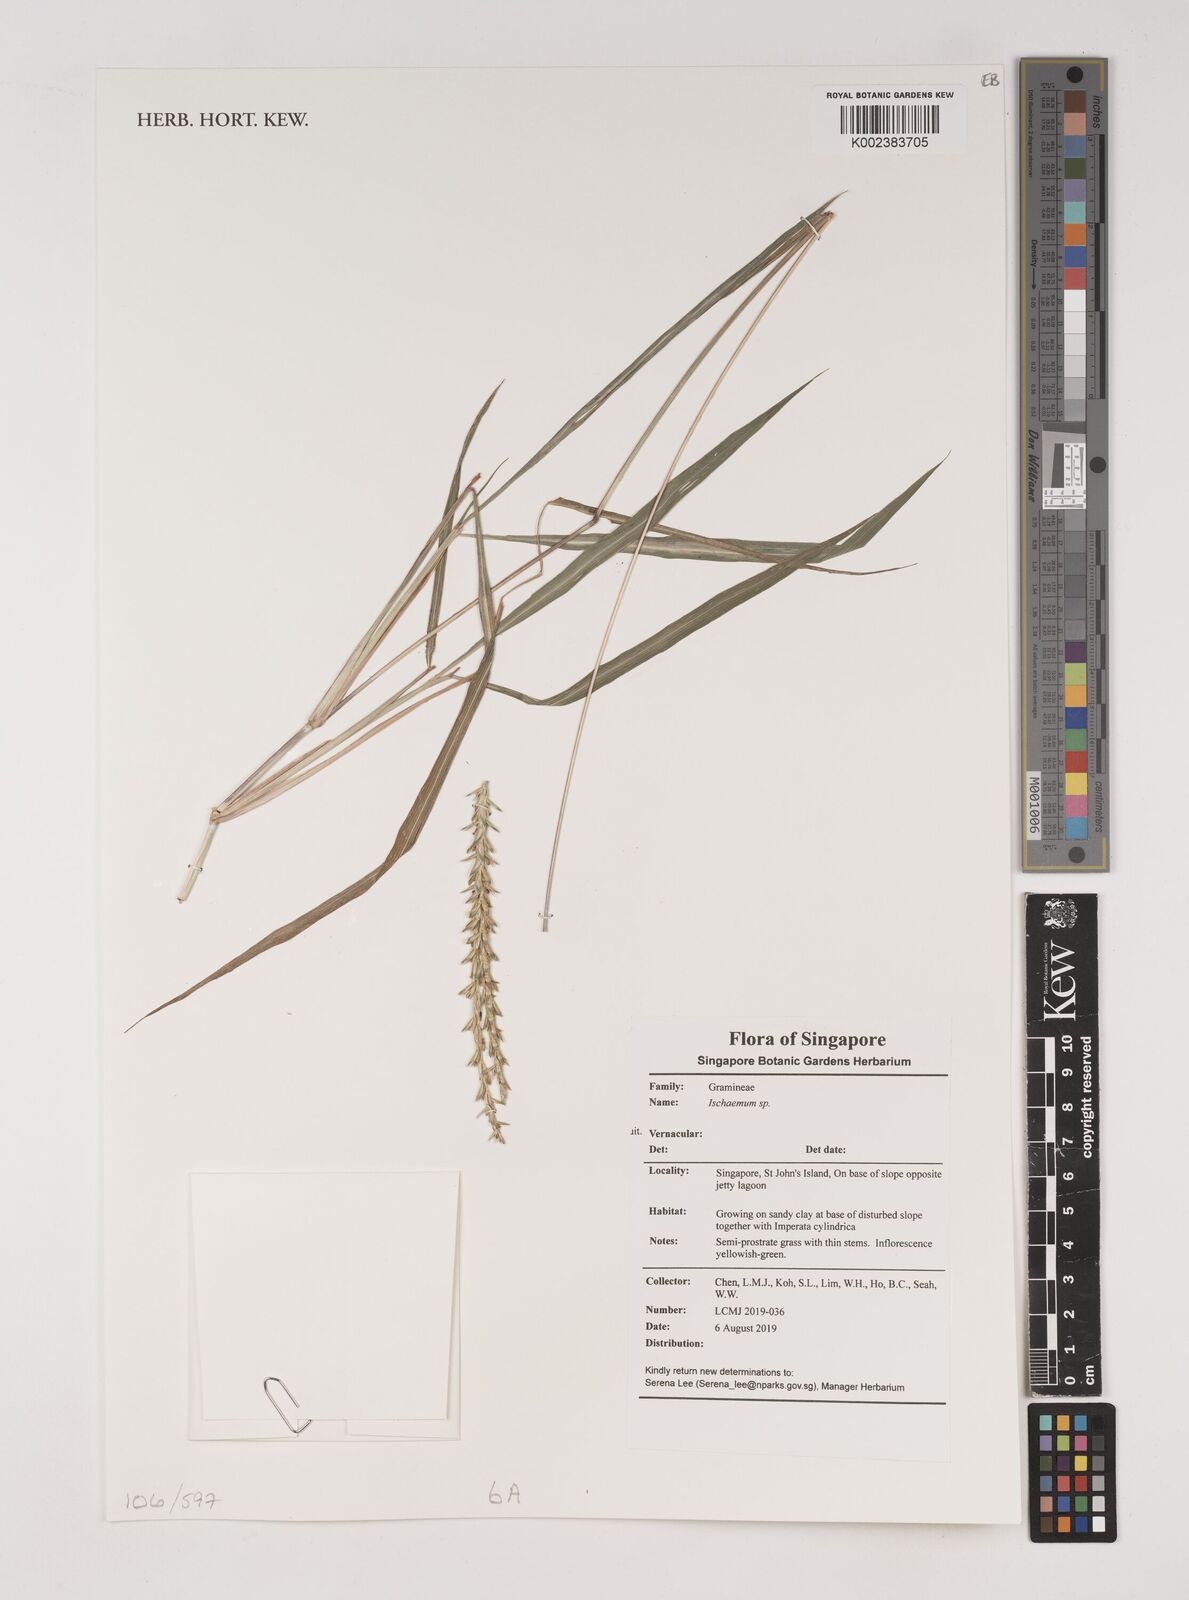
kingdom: Plantae
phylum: Tracheophyta
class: Liliopsida
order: Poales
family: Poaceae
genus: Ischaemum
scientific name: Ischaemum
